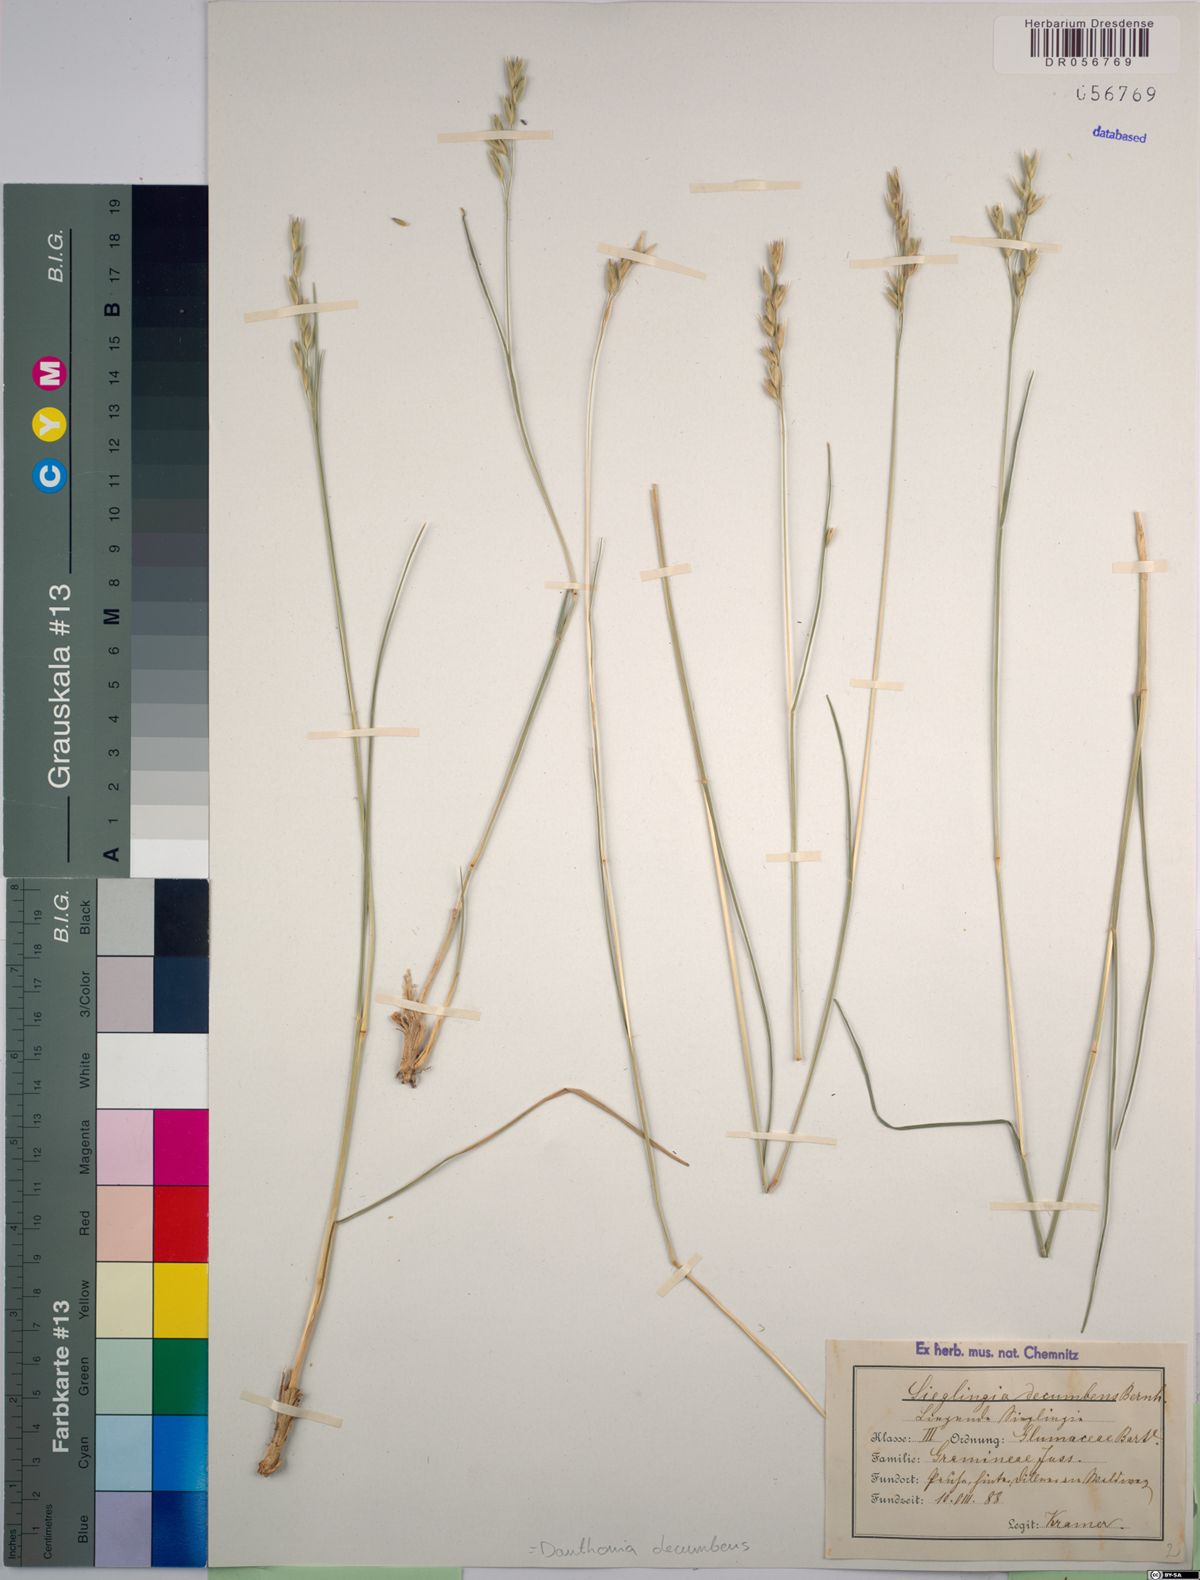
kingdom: Plantae
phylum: Tracheophyta
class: Liliopsida
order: Poales
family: Poaceae
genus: Danthonia
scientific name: Danthonia decumbens
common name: Common heathgrass
